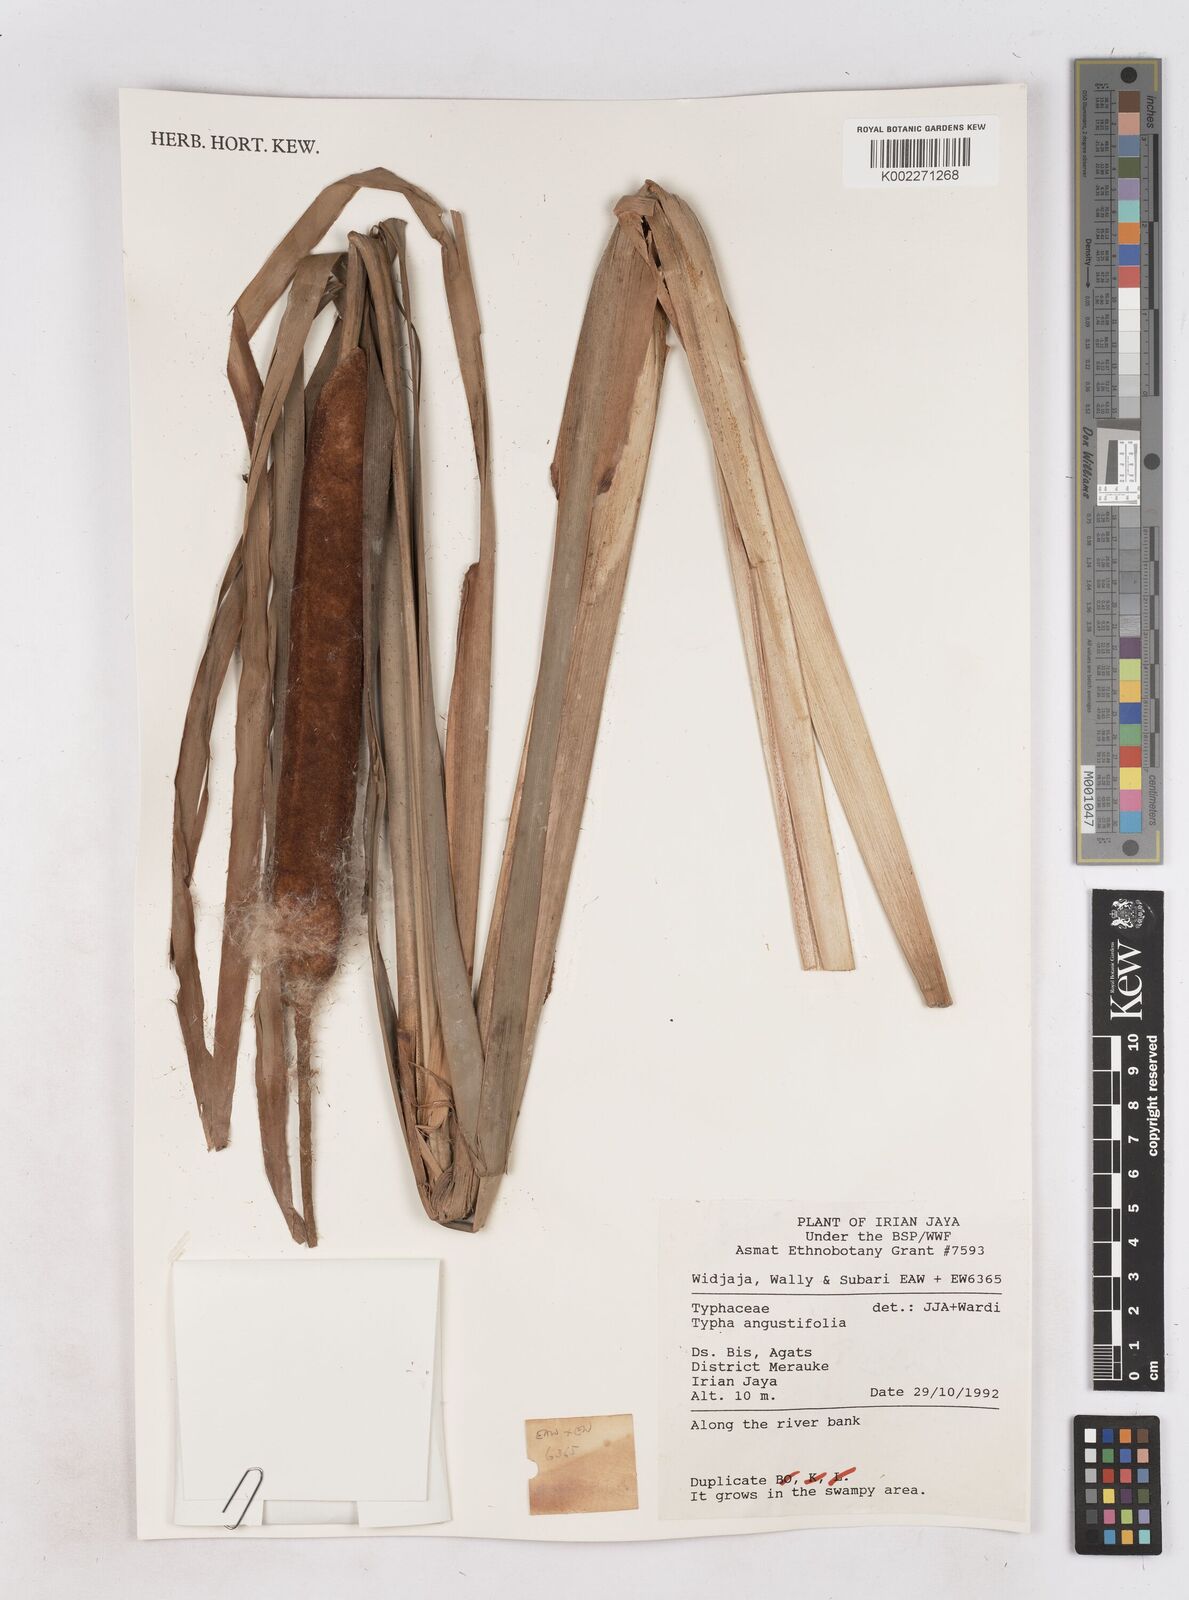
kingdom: Plantae
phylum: Tracheophyta
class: Liliopsida
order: Poales
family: Typhaceae
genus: Typha
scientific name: Typha angustifolia
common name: Lesser bulrush
